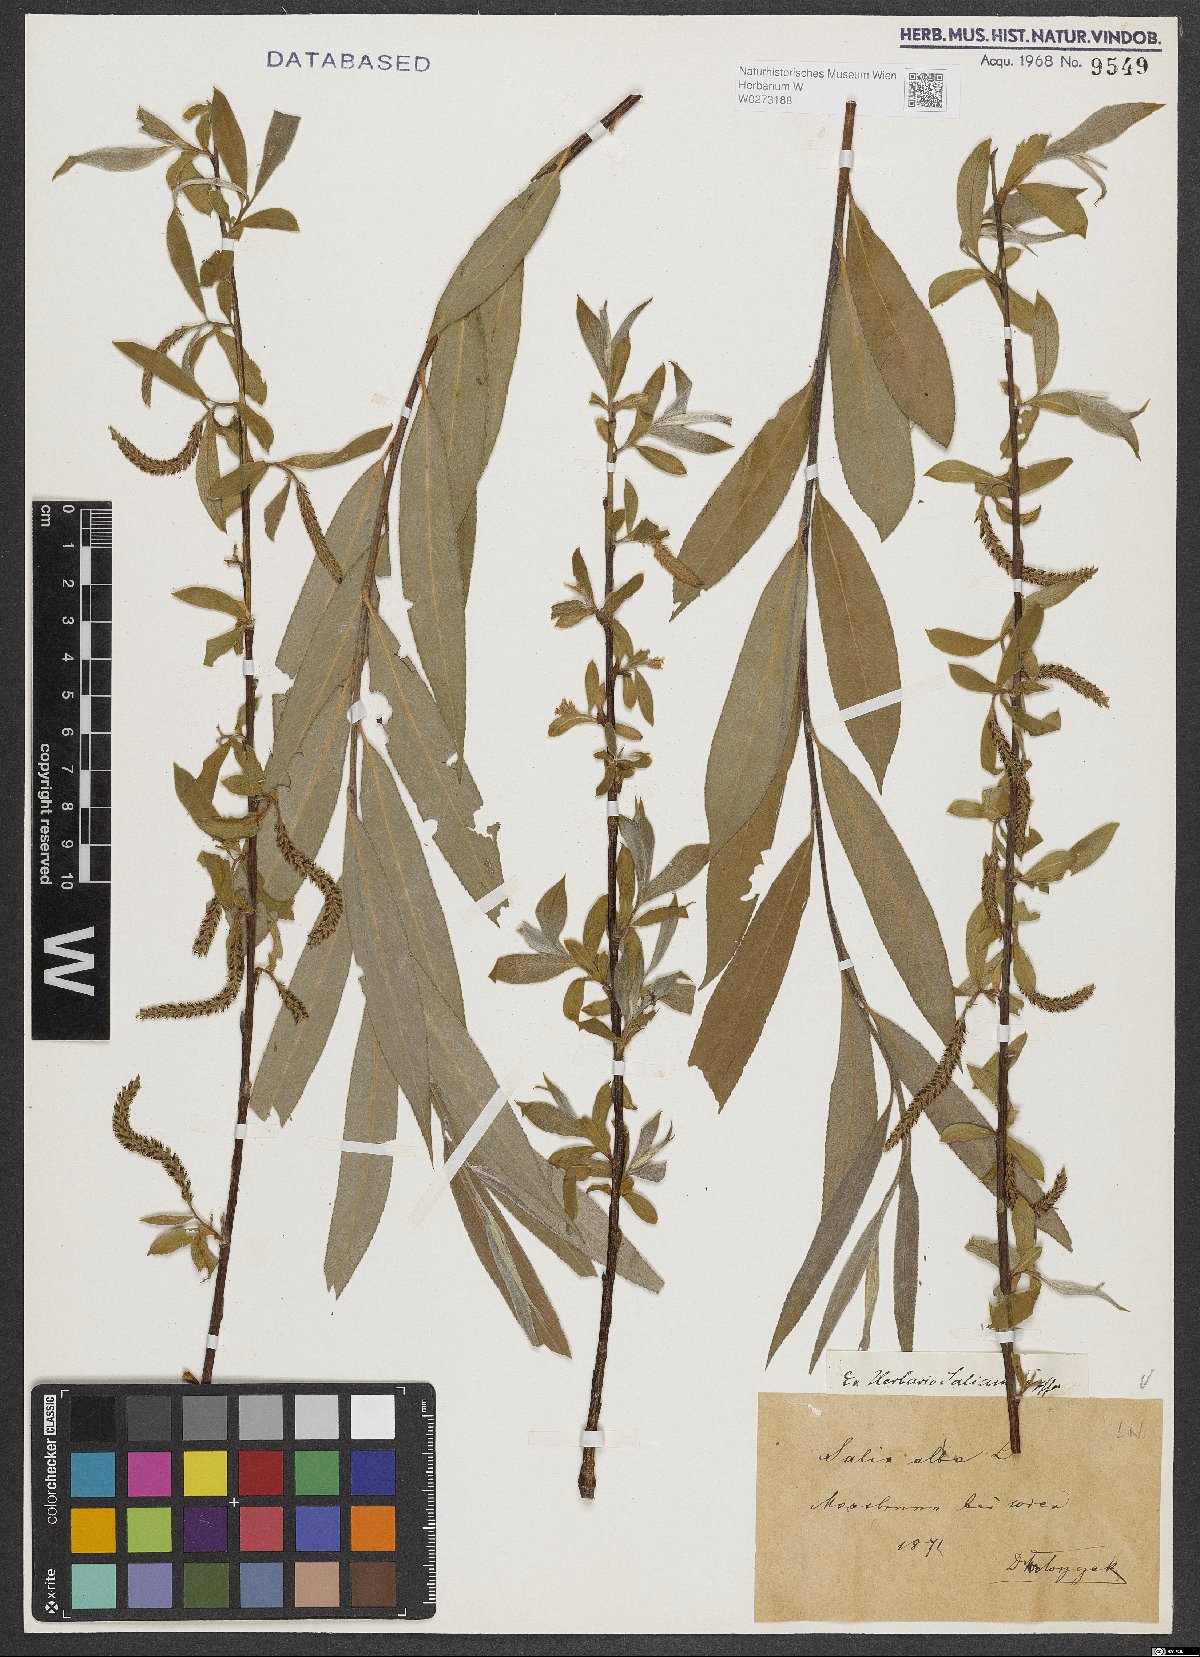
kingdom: Plantae
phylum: Tracheophyta
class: Magnoliopsida
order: Malpighiales
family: Salicaceae
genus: Salix
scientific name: Salix alba
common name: White willow
